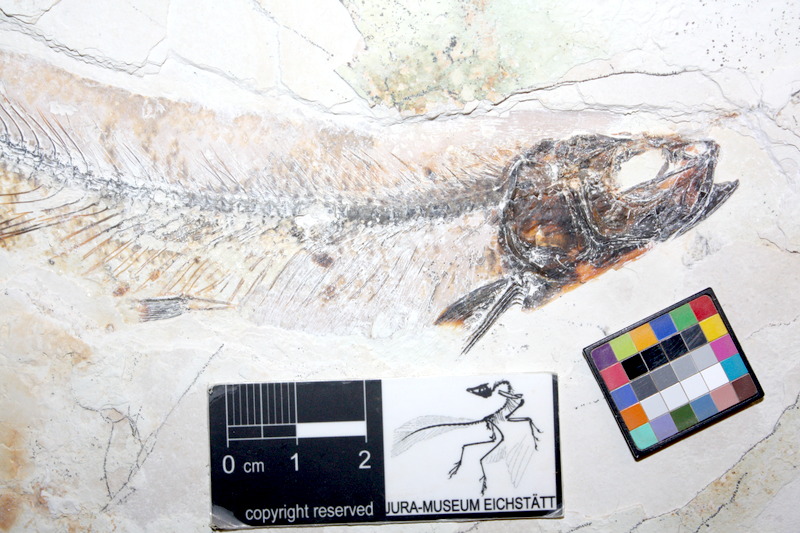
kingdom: Animalia
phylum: Chordata
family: Allothrissopidae
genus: Allothrissops
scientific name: Allothrissops mesogaster
